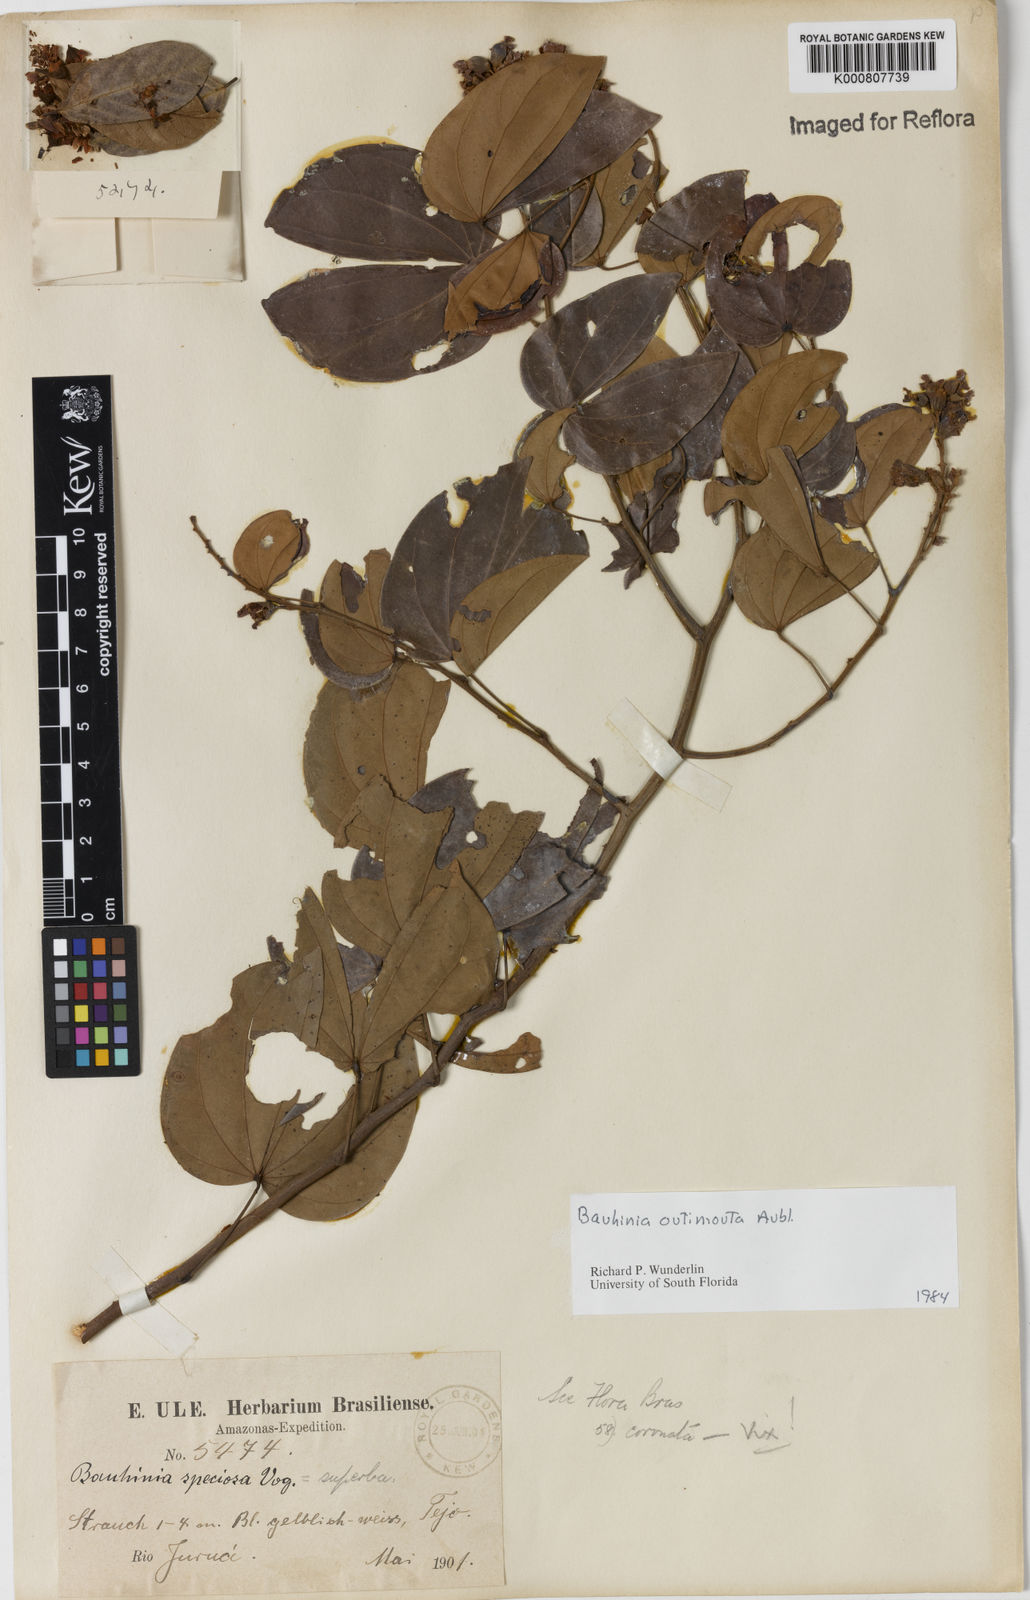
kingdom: Plantae
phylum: Tracheophyta
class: Magnoliopsida
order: Fabales
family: Fabaceae
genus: Schnella
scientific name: Schnella outimouta
